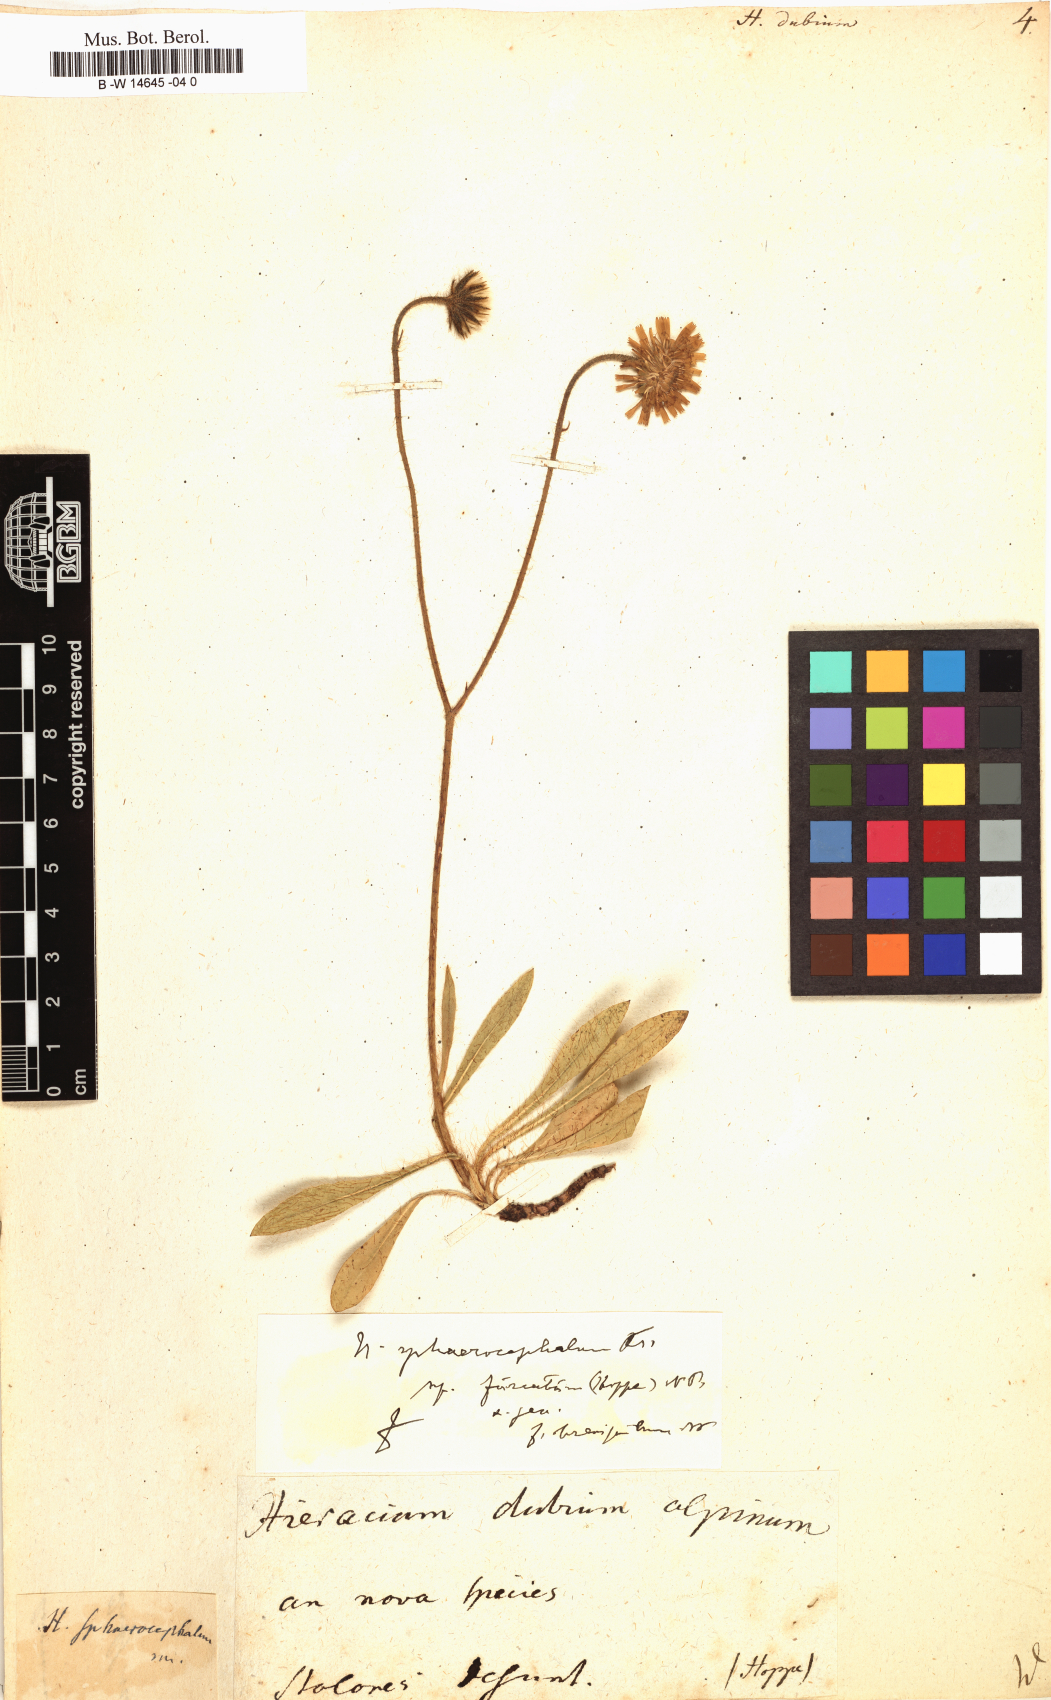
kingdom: Plantae
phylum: Tracheophyta
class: Magnoliopsida
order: Asterales
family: Asteraceae
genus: Hieracium
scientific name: Hieracium dubium
